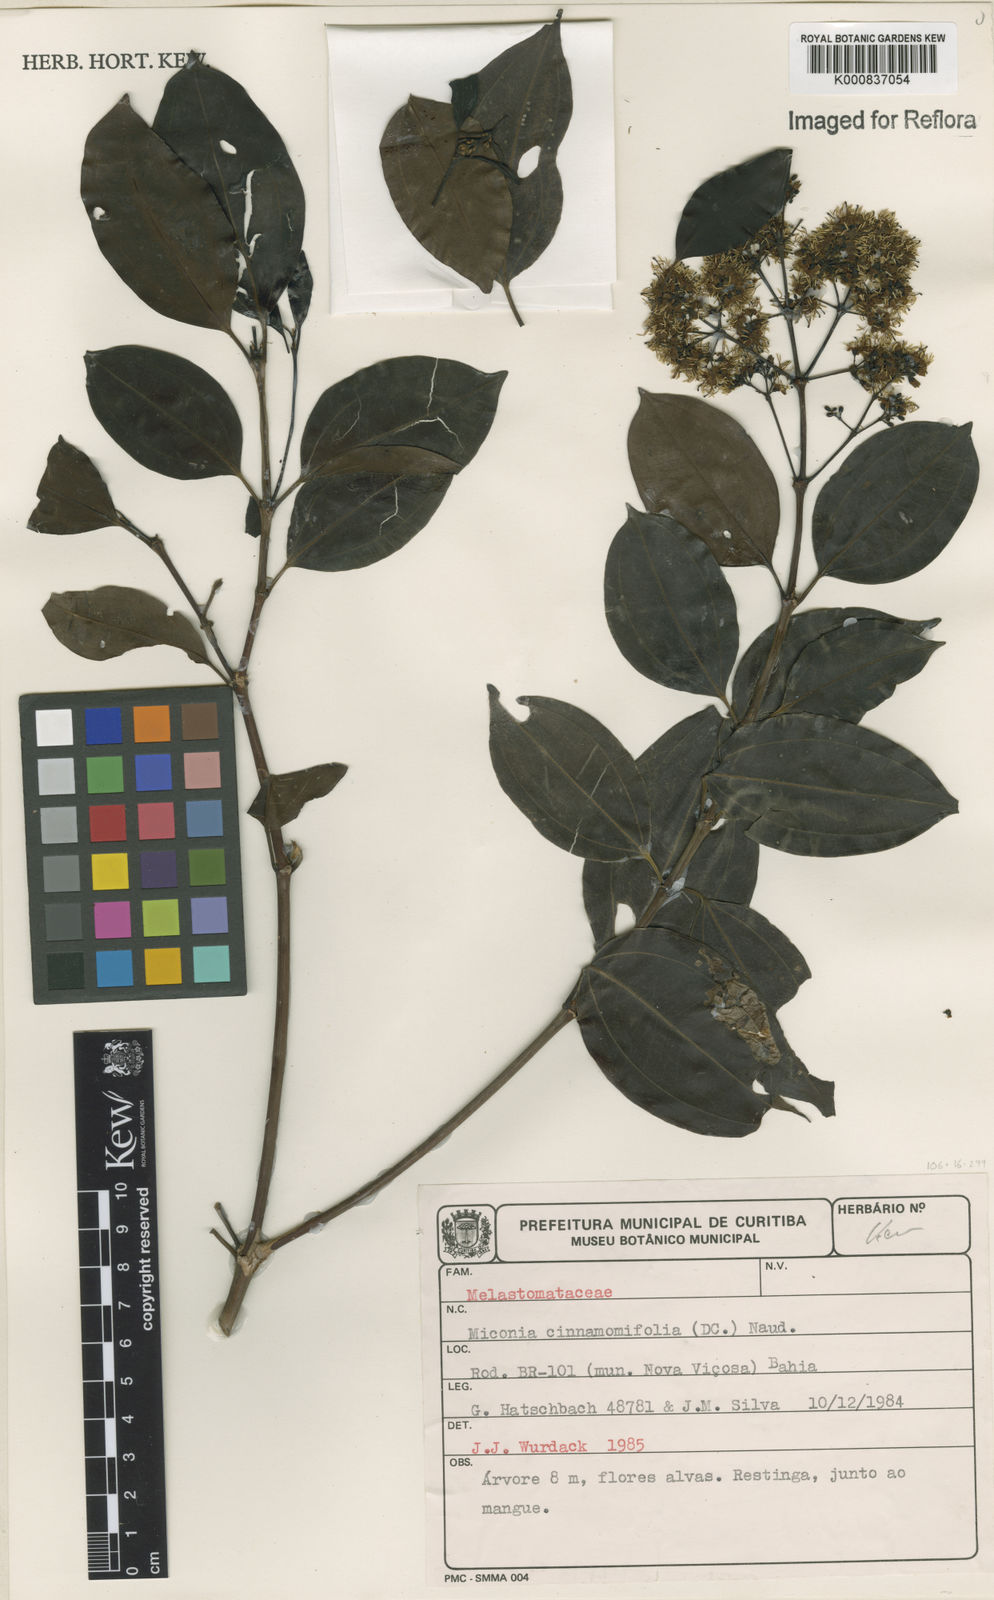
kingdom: Plantae
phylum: Tracheophyta
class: Magnoliopsida
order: Myrtales
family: Melastomataceae
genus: Miconia
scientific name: Miconia cinnamomifolia
